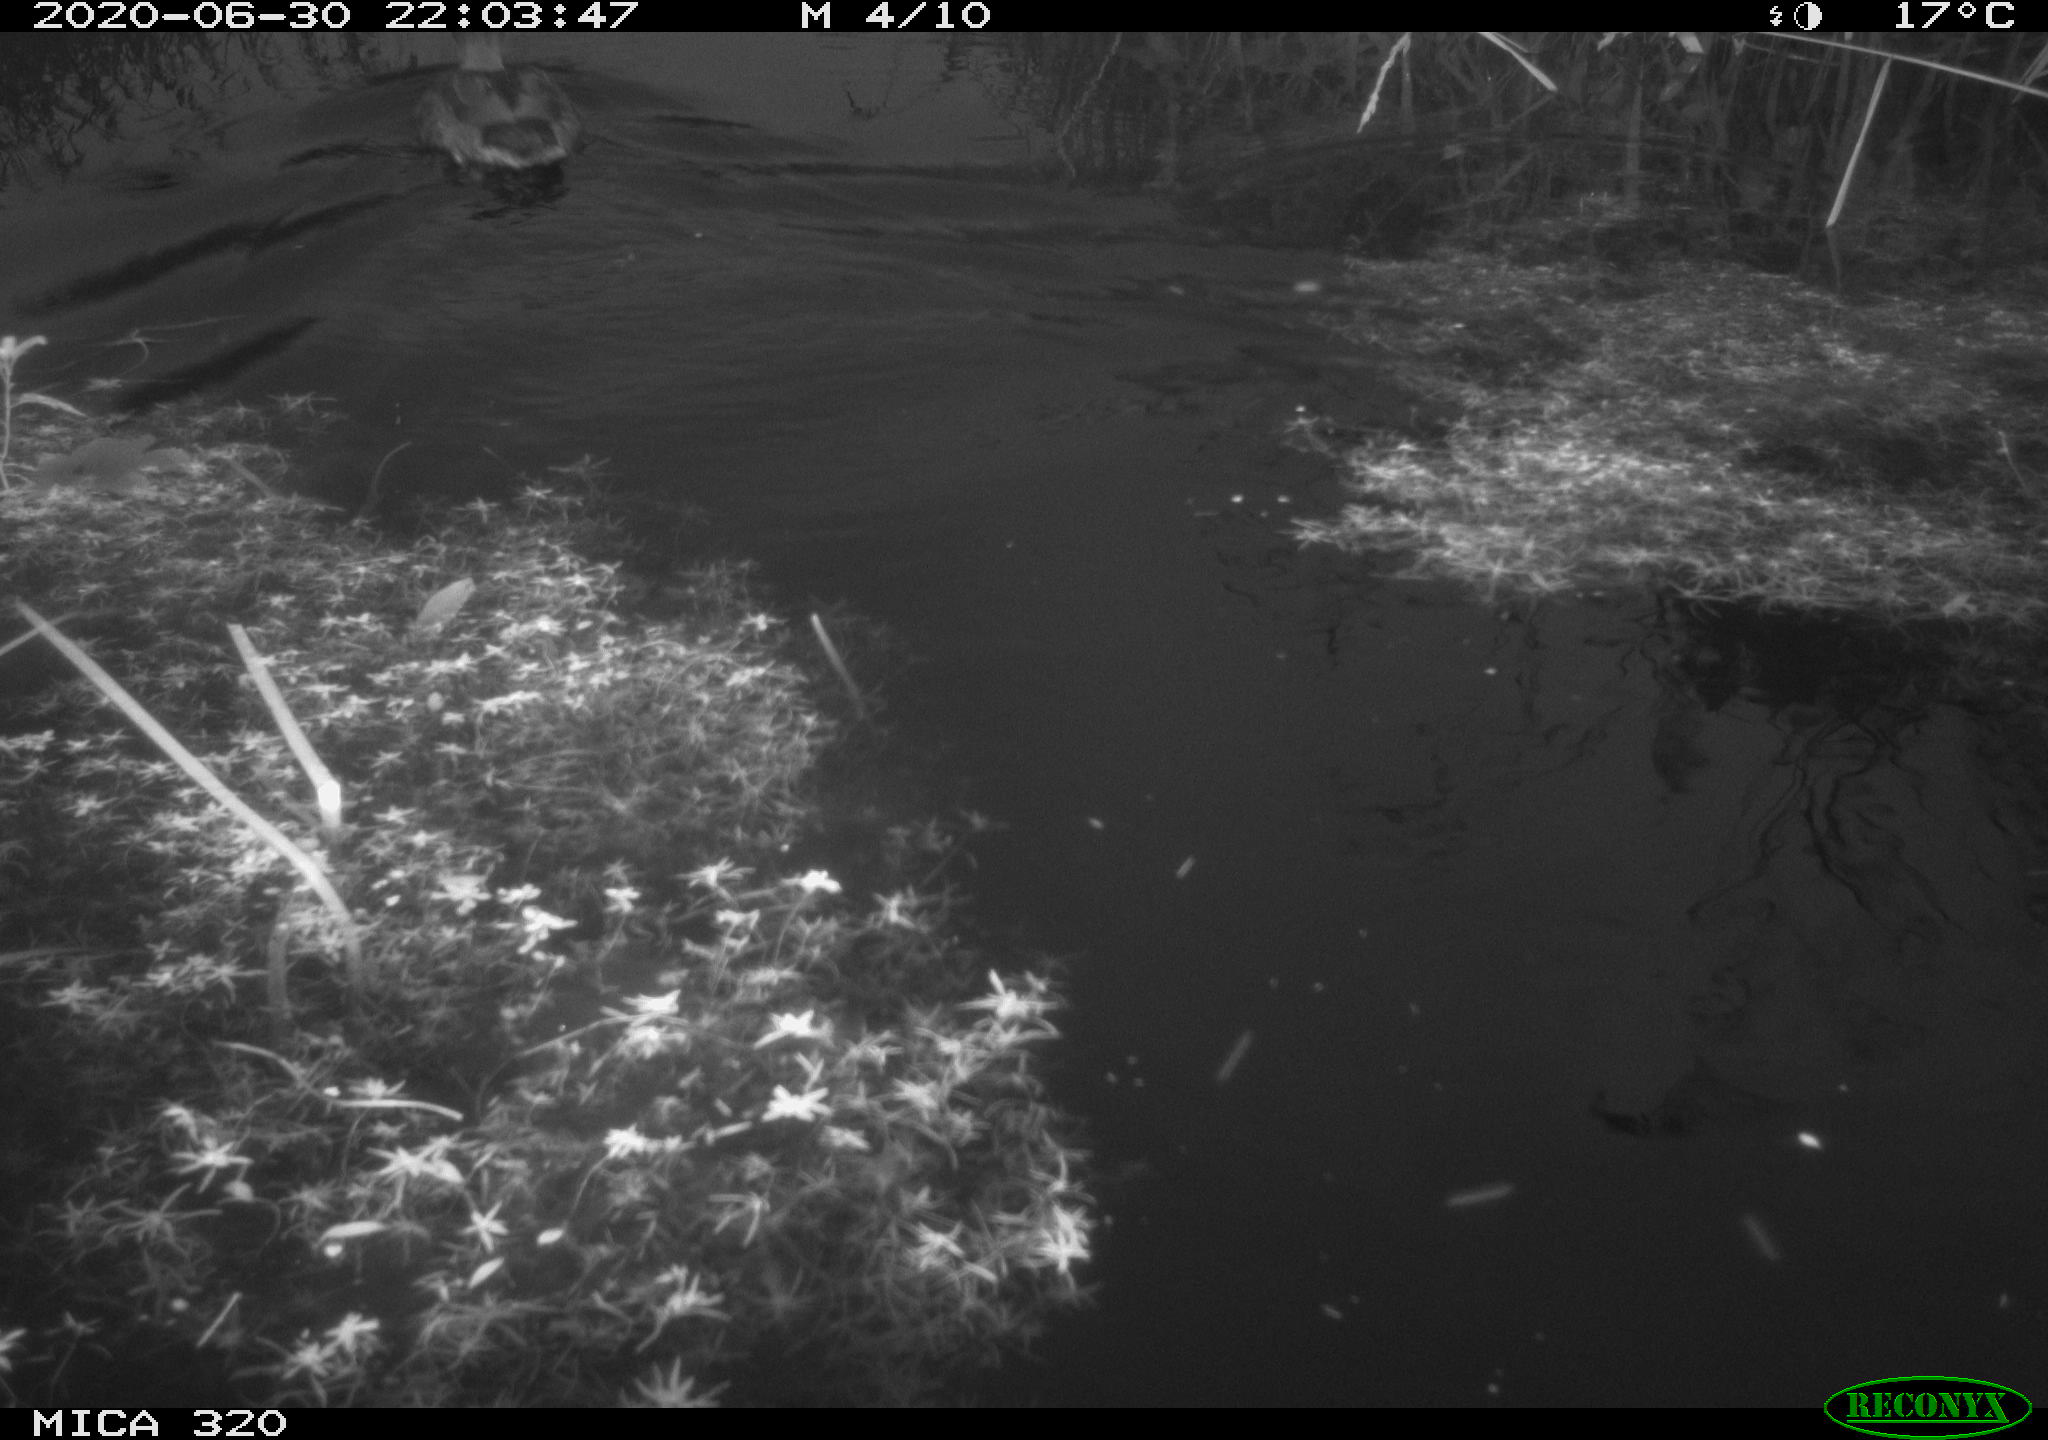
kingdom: Animalia
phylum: Chordata
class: Aves
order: Anseriformes
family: Anatidae
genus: Anas
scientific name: Anas platyrhynchos
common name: Mallard
